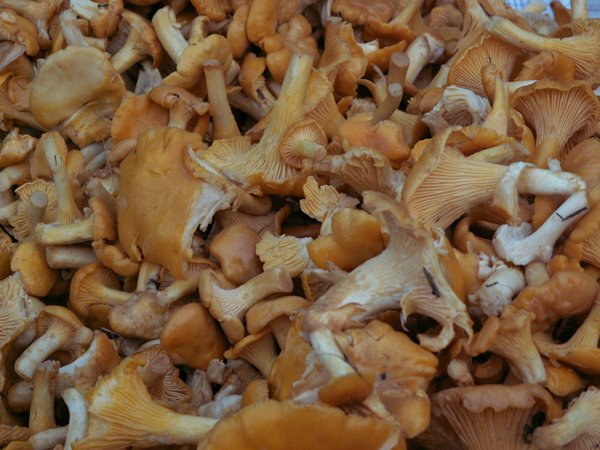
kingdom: Fungi
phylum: Basidiomycota
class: Agaricomycetes
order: Cantharellales
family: Hydnaceae
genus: Cantharellus
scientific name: Cantharellus cibarius
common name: almindelig kantarel
